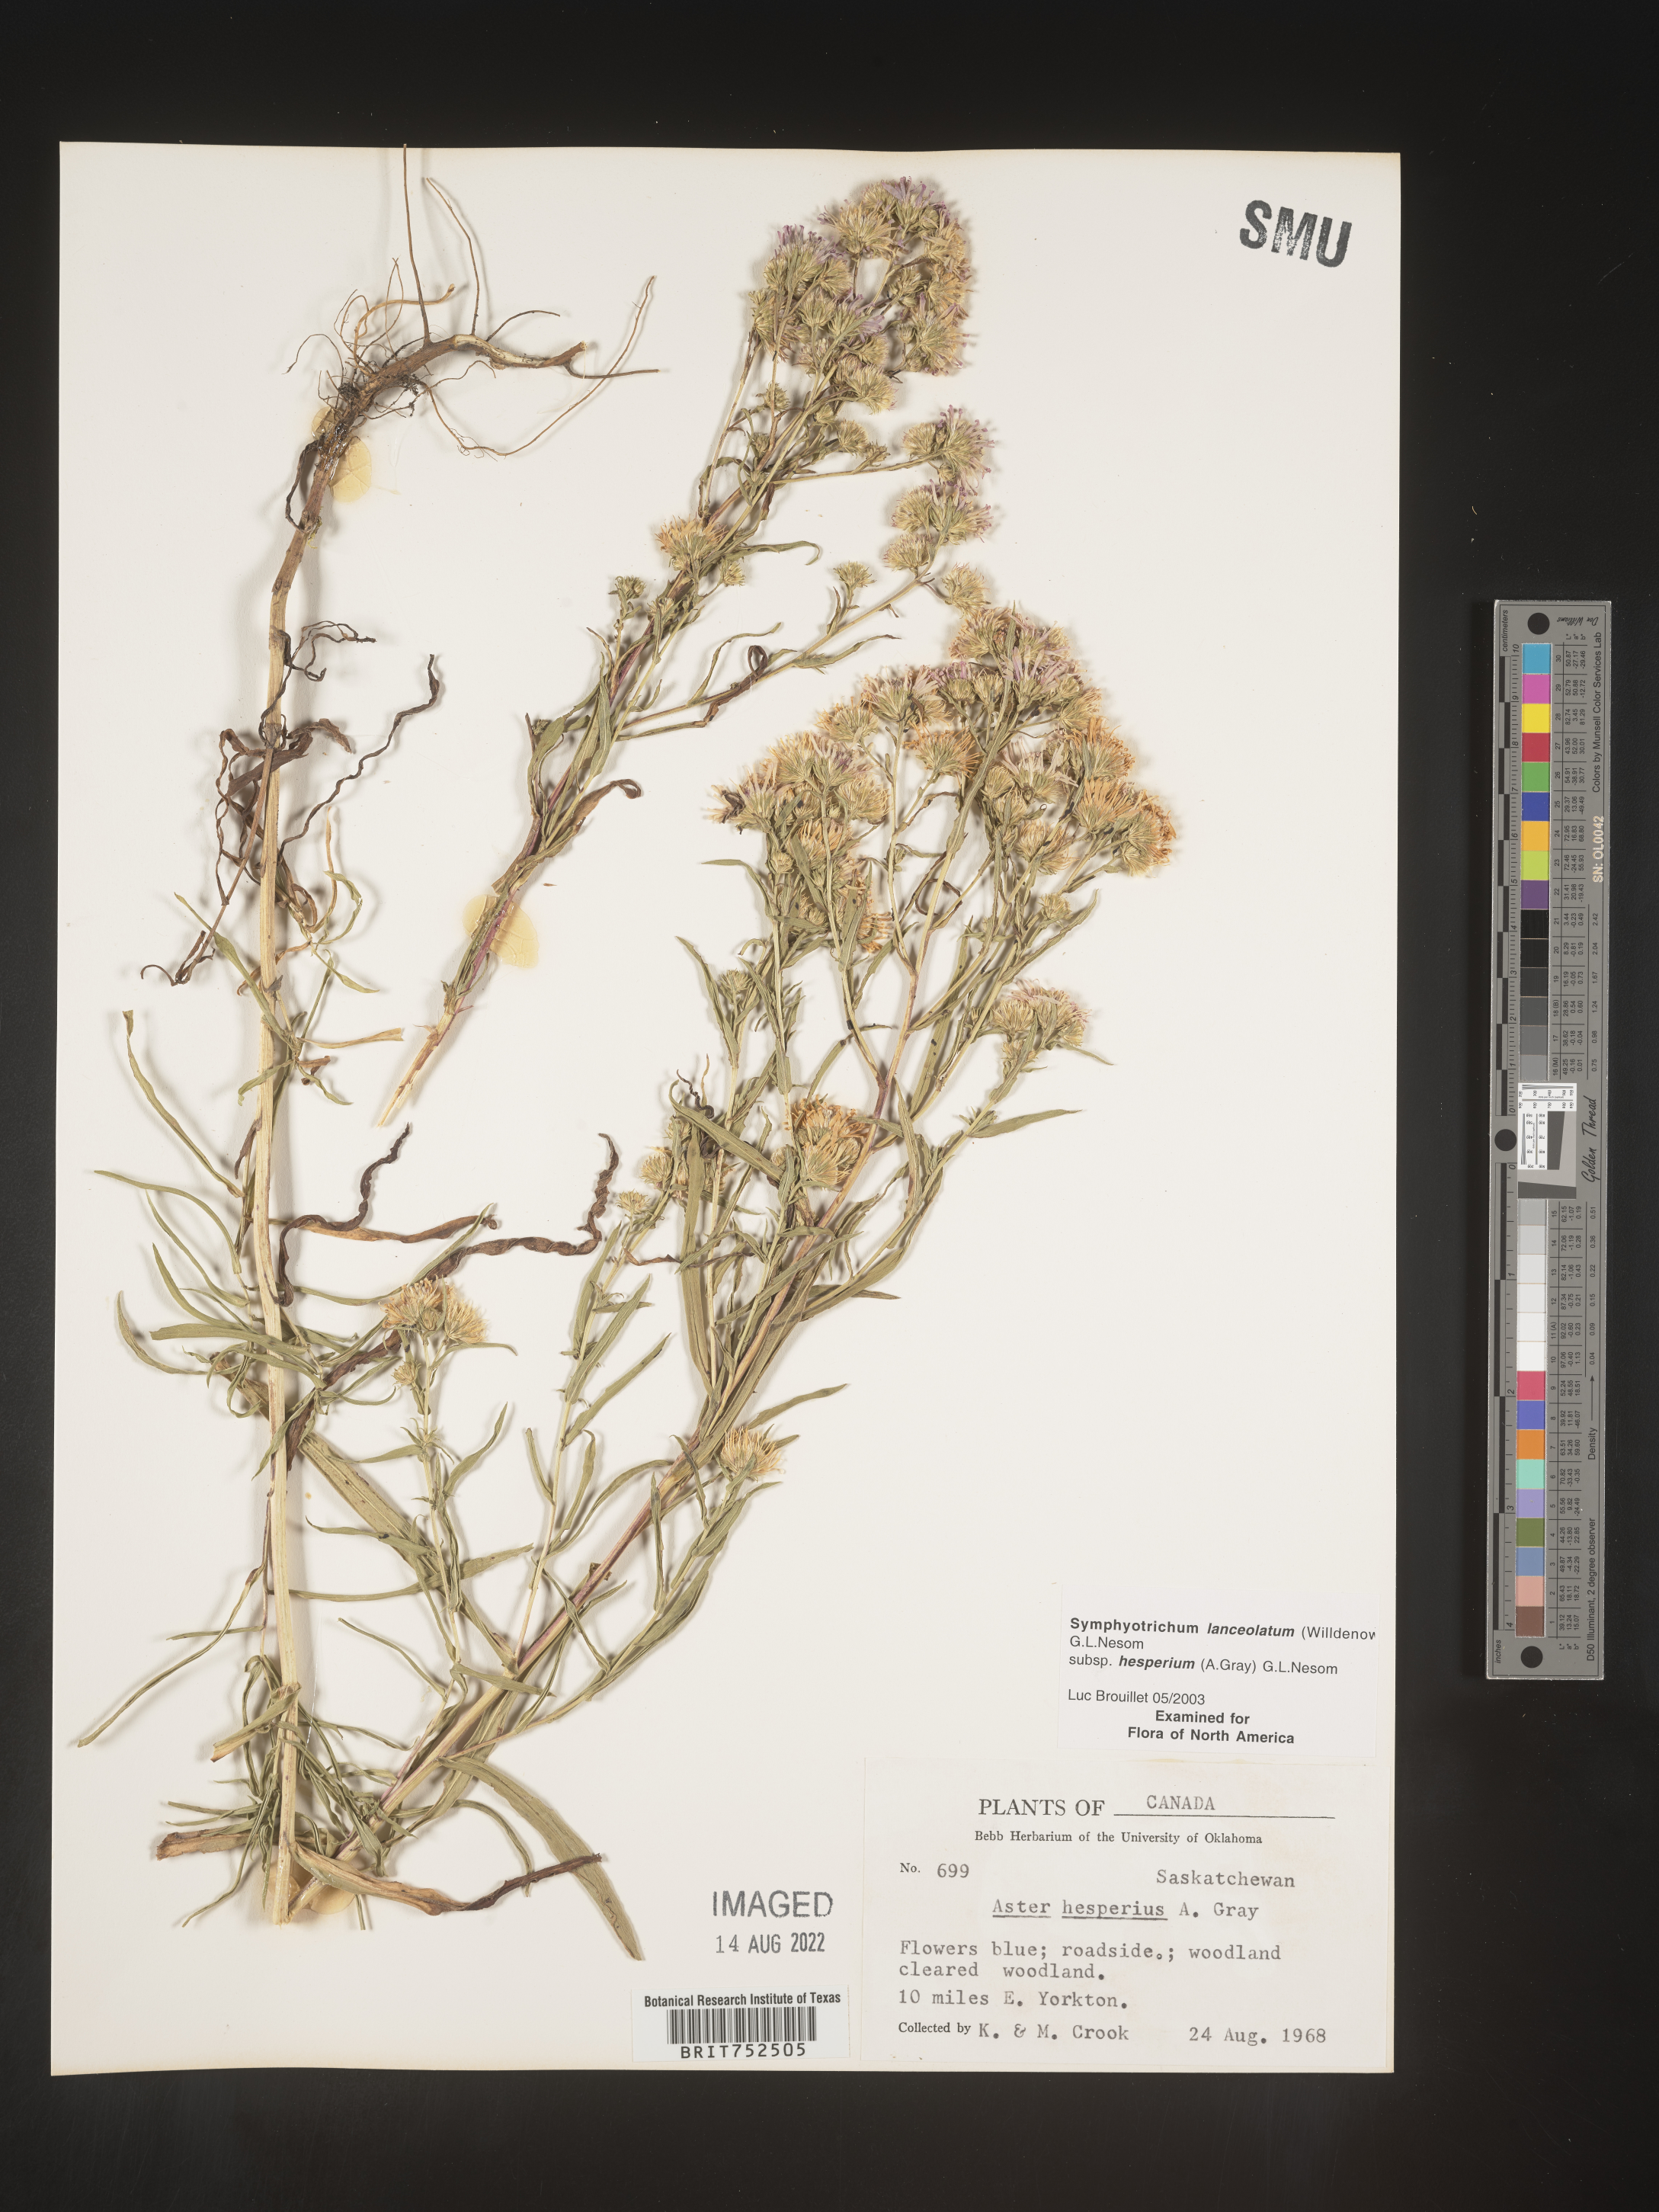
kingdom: Plantae
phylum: Tracheophyta
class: Magnoliopsida
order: Asterales
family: Asteraceae
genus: Symphyotrichum
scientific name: Symphyotrichum lanceolatum
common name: Panicled aster
